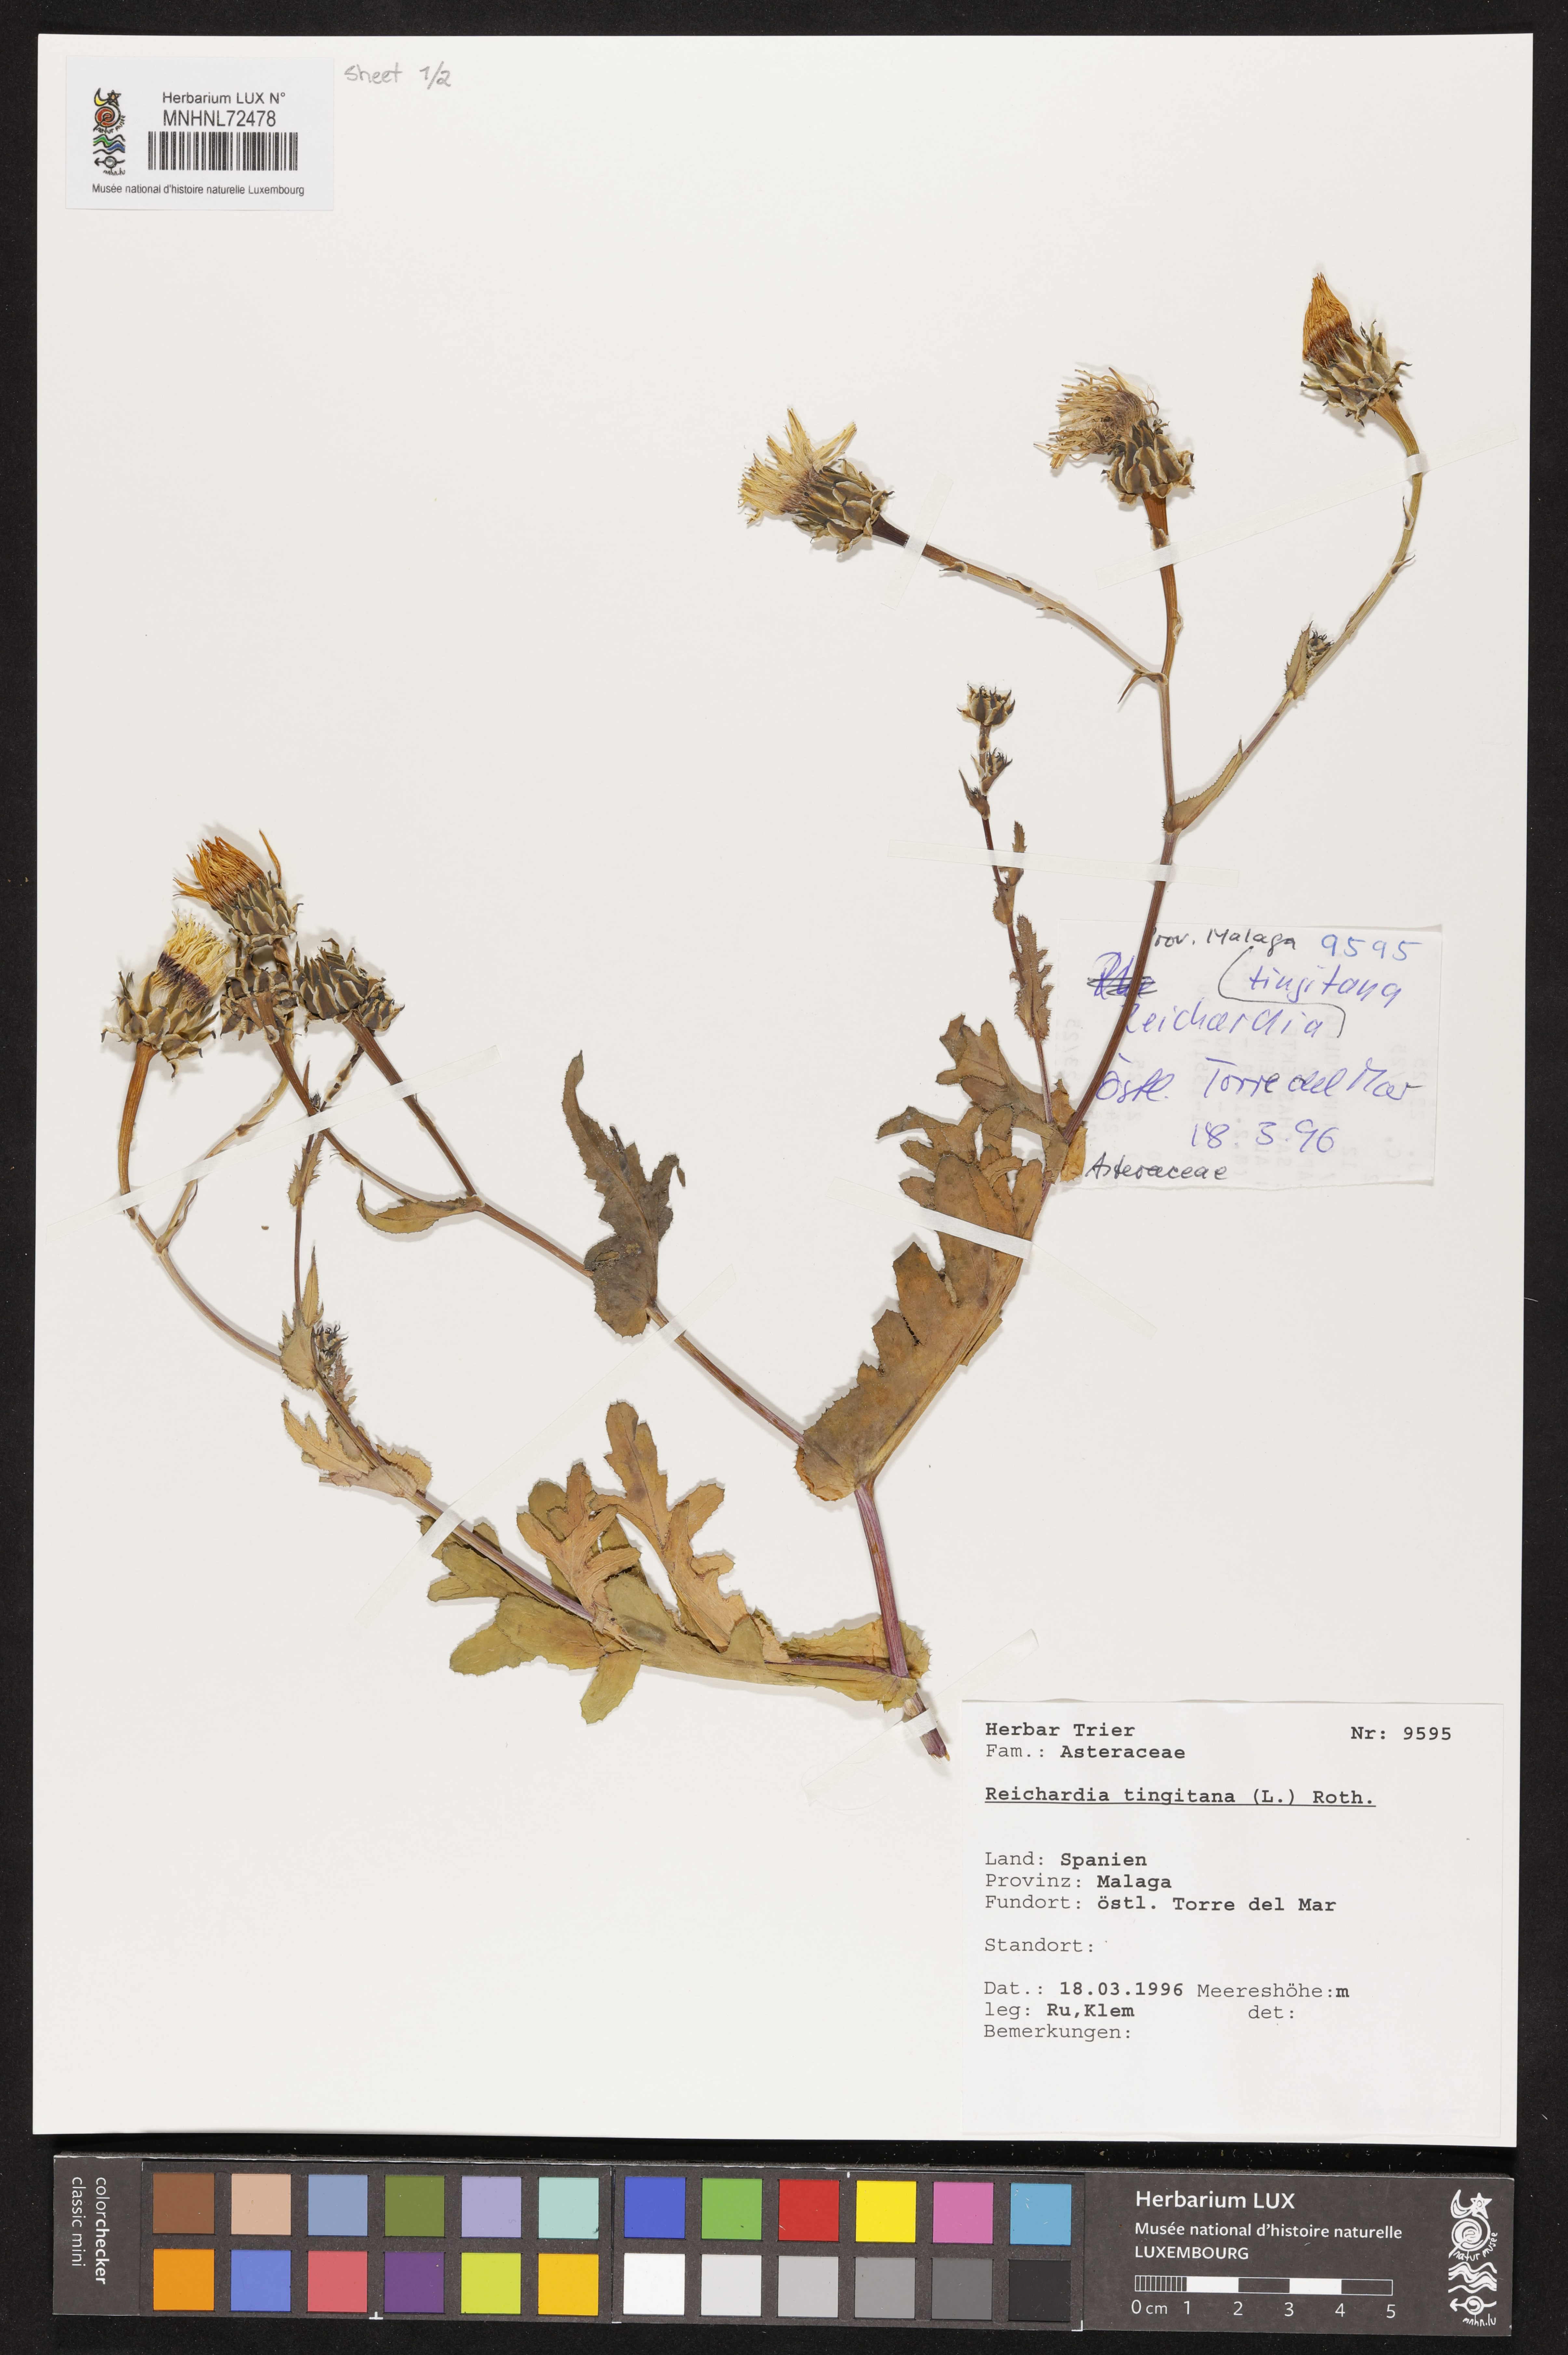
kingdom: Plantae
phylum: Tracheophyta
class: Magnoliopsida
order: Asterales
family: Asteraceae
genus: Reichardia
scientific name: Reichardia tingitana
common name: Reichardia
